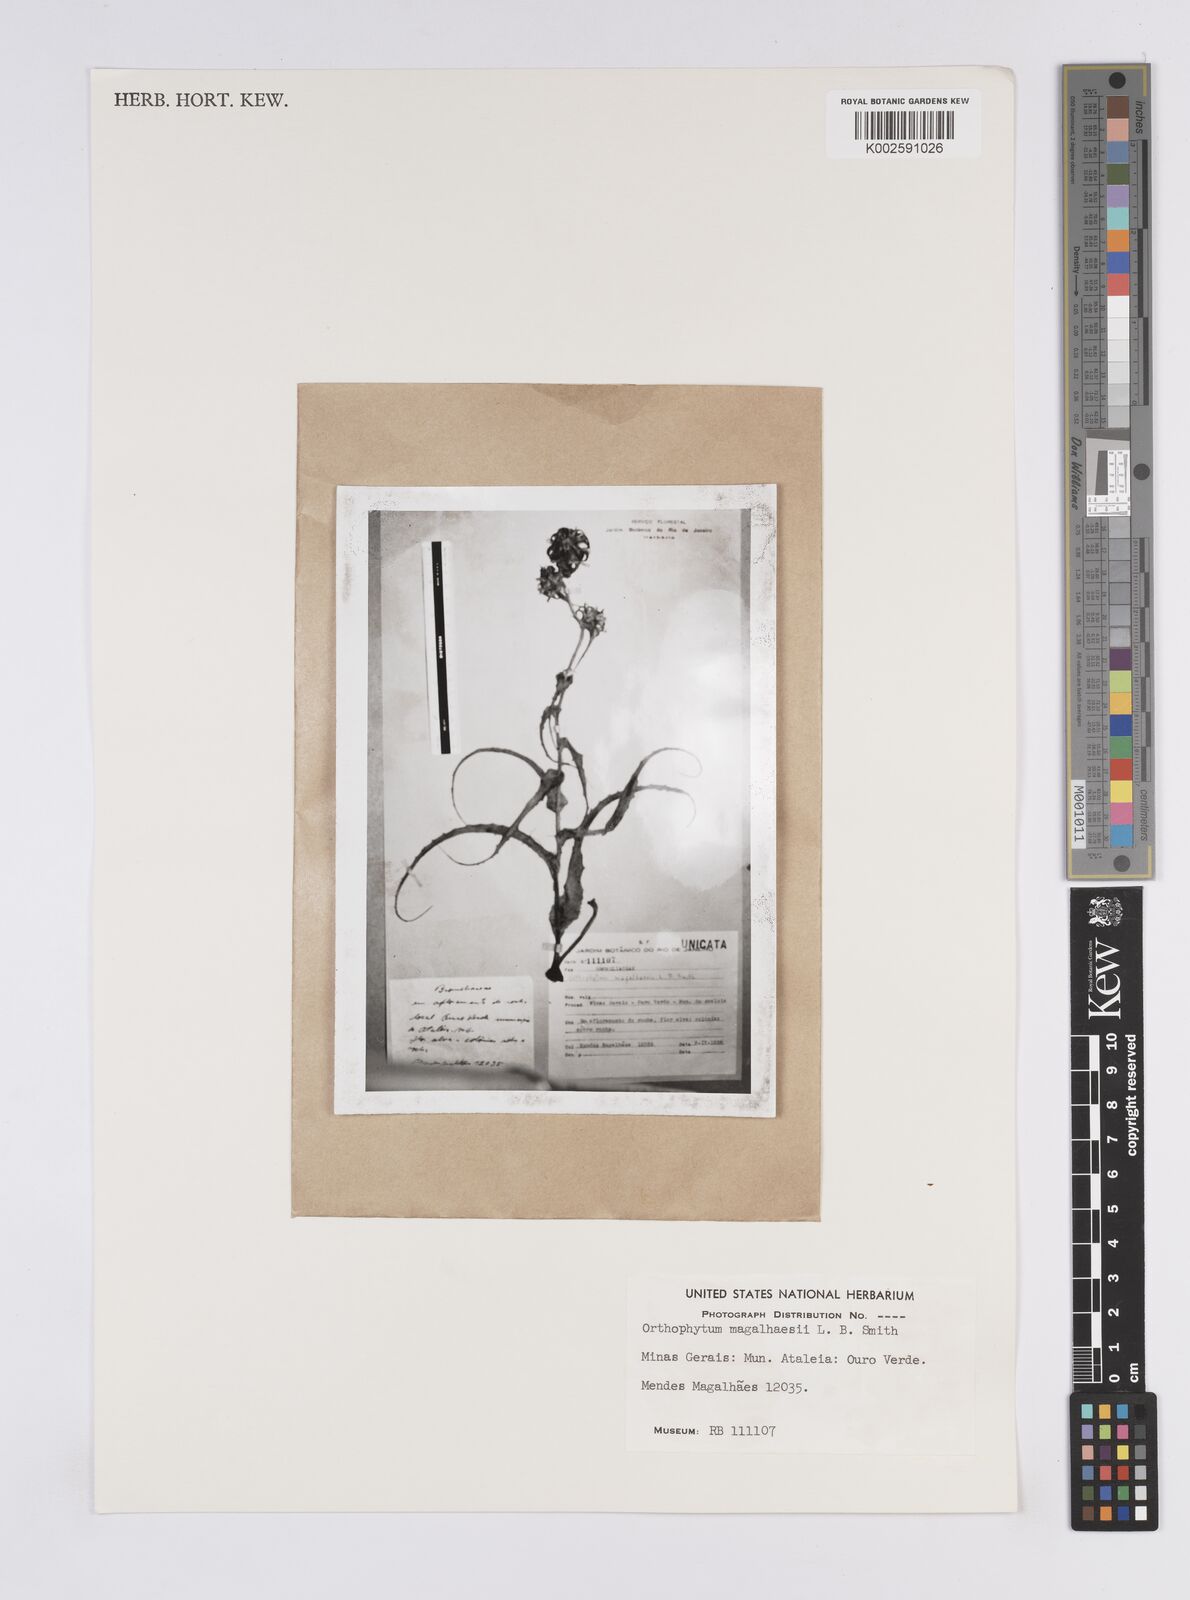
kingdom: Plantae
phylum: Tracheophyta
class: Liliopsida
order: Poales
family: Bromeliaceae
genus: Orthophytum
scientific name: Orthophytum magalhaesii
